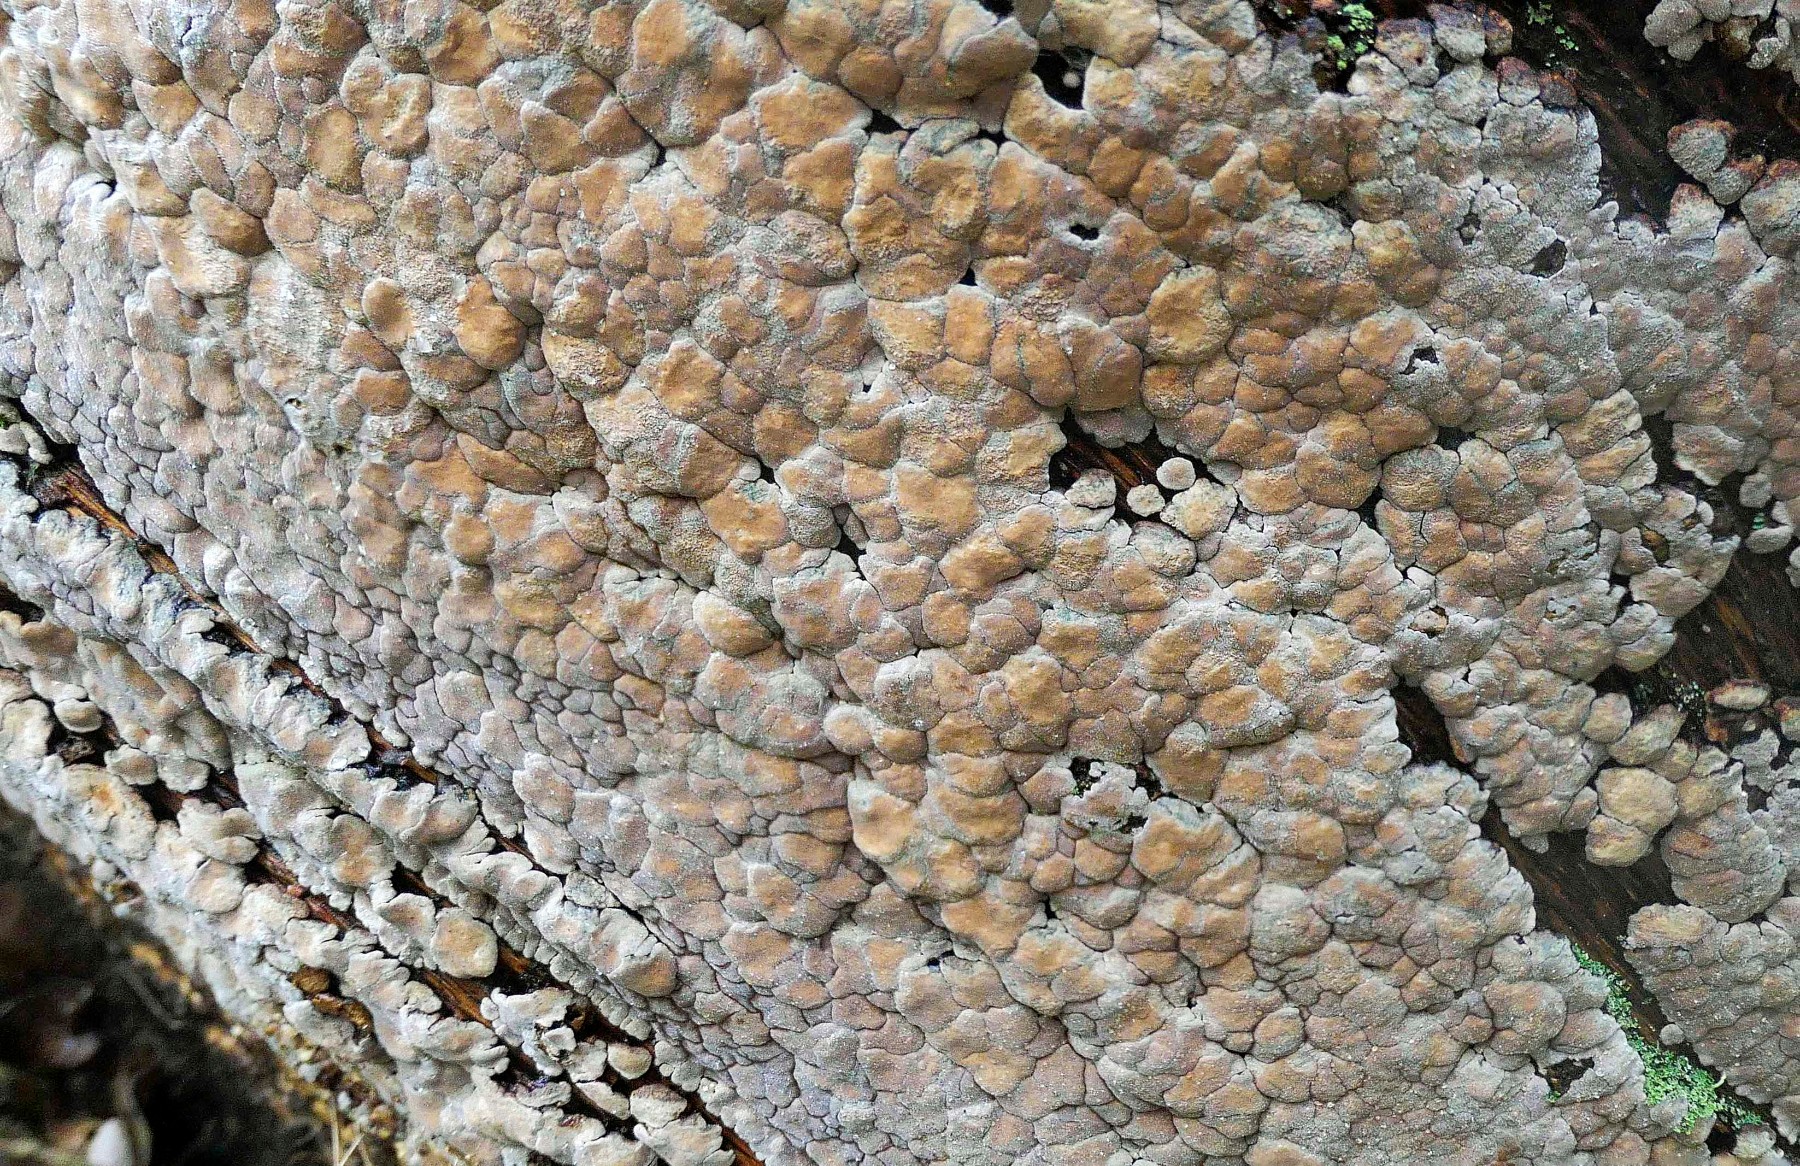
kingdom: Fungi
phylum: Basidiomycota
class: Agaricomycetes
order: Russulales
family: Stereaceae
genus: Xylobolus
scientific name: Xylobolus frustulatus
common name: mønster-lædersvamp
